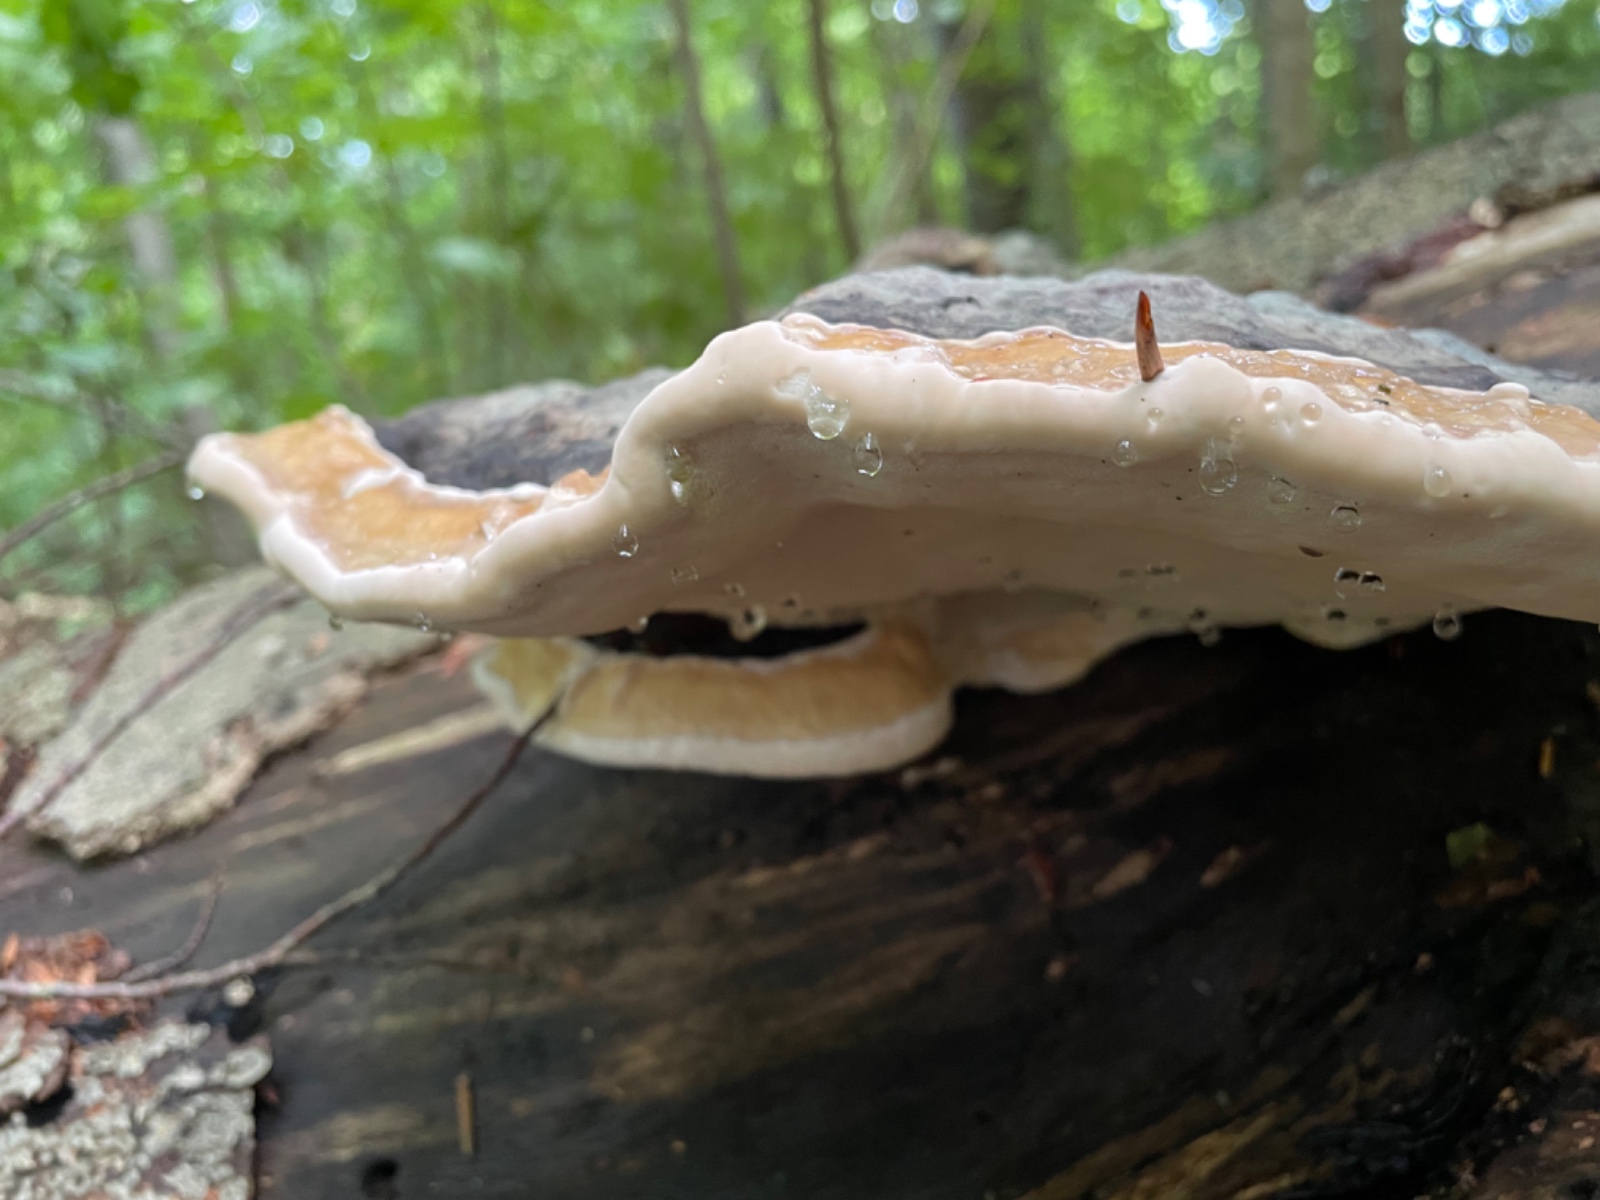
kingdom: Fungi
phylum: Basidiomycota
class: Agaricomycetes
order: Polyporales
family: Fomitopsidaceae
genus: Fomitopsis
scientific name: Fomitopsis pinicola
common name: randbæltet hovporesvamp
